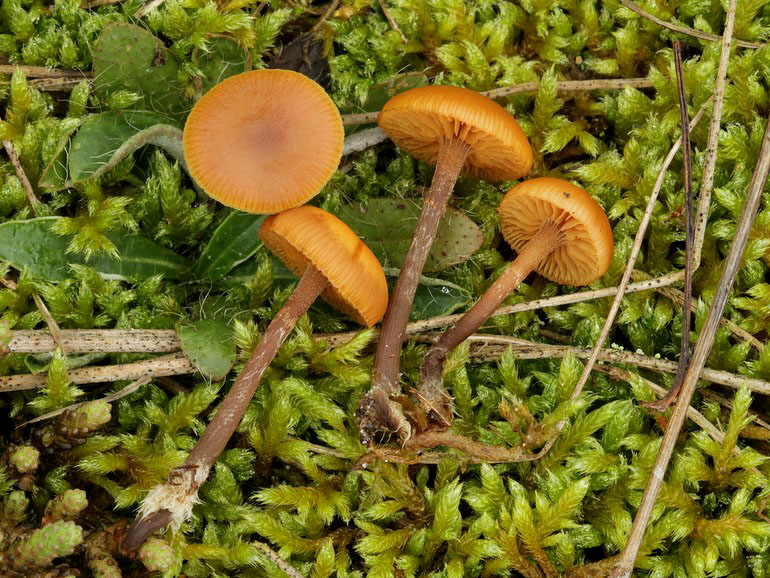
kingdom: Fungi
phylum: Basidiomycota
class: Agaricomycetes
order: Agaricales
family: Hymenogastraceae
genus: Galerina
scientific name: Galerina esteve-raventosii
